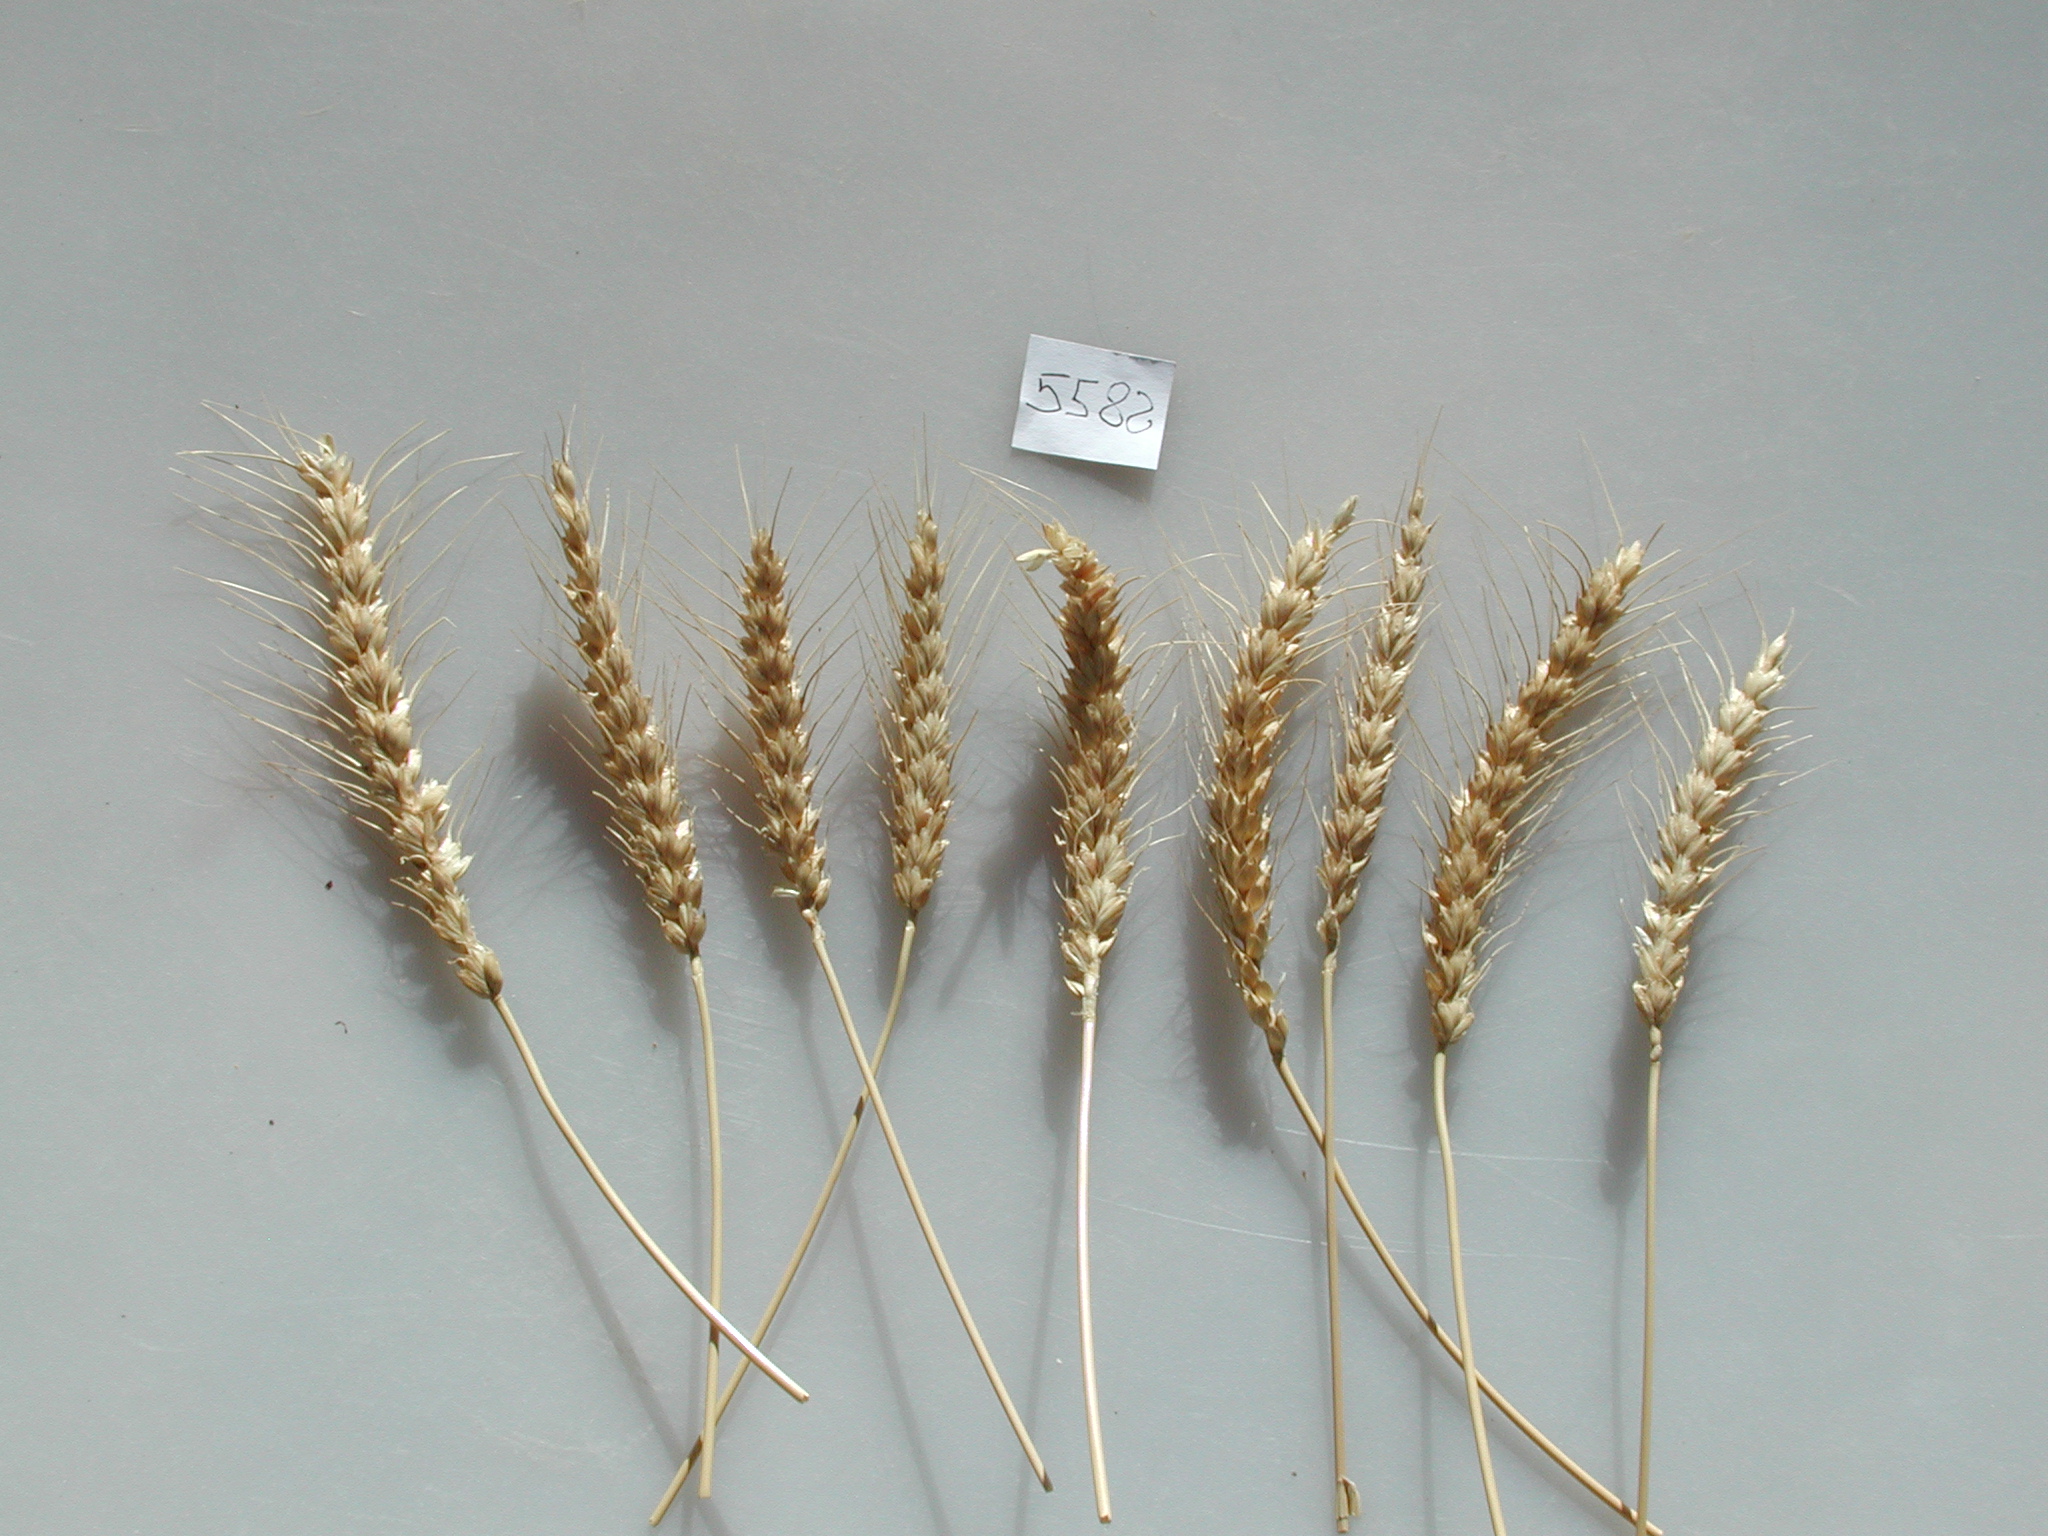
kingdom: Plantae
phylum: Tracheophyta
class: Liliopsida
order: Poales
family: Poaceae
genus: Triticum
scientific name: Triticum
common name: Wheat
